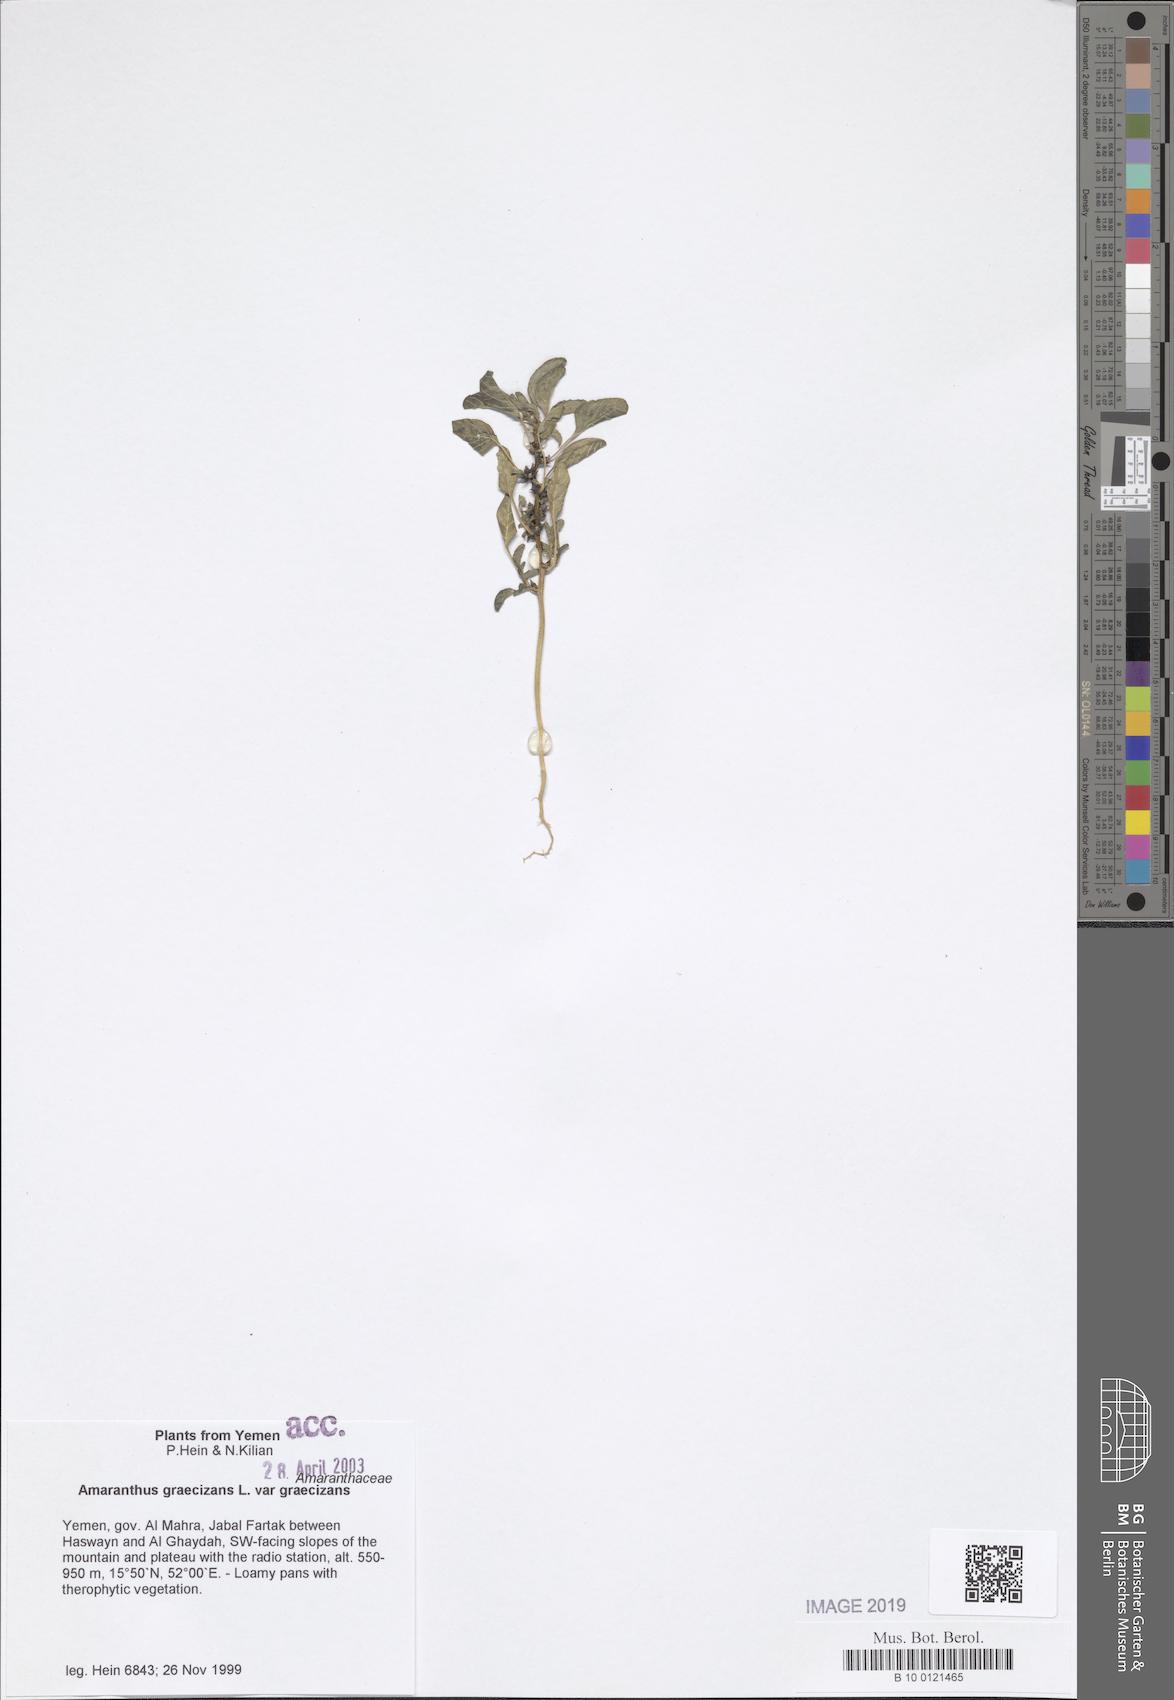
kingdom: Plantae
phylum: Tracheophyta
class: Magnoliopsida
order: Caryophyllales
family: Amaranthaceae
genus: Amaranthus
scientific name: Amaranthus graecizans
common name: Mediterranean amaranth
